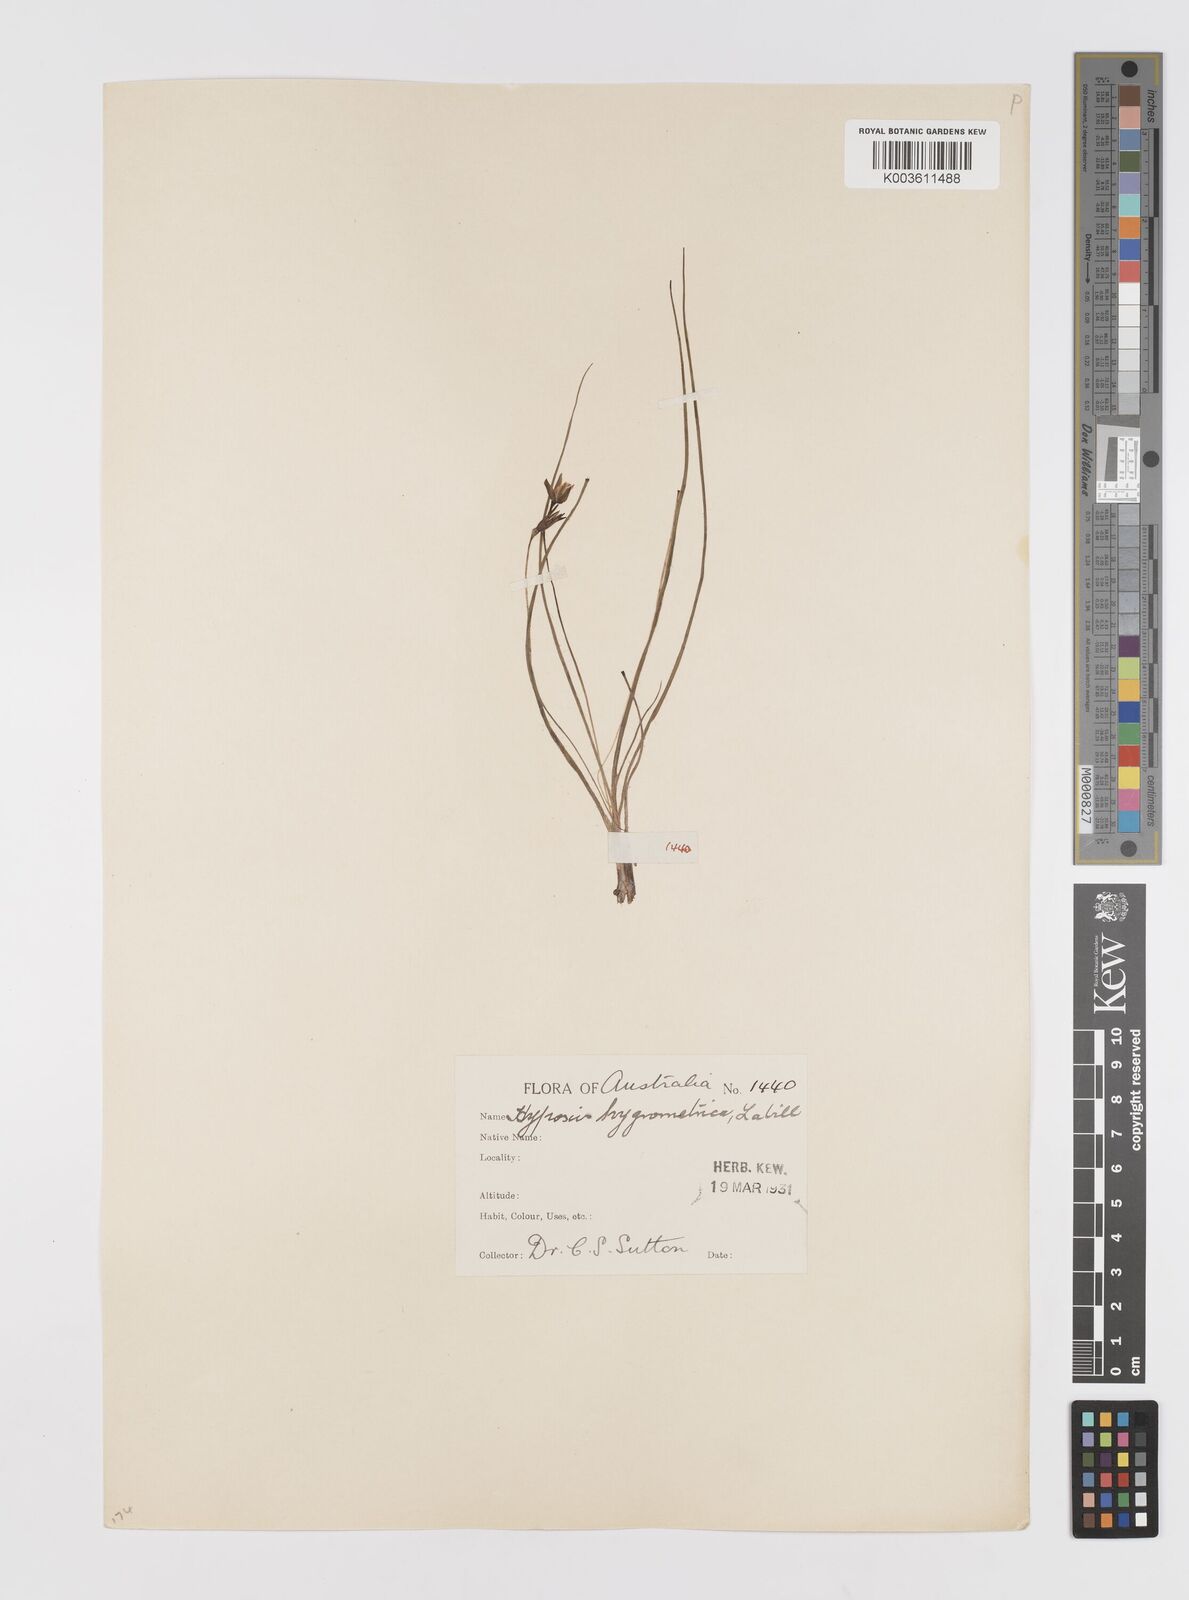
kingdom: Plantae
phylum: Tracheophyta
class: Liliopsida
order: Asparagales
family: Hypoxidaceae
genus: Hypoxis
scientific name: Hypoxis hygrometrica
